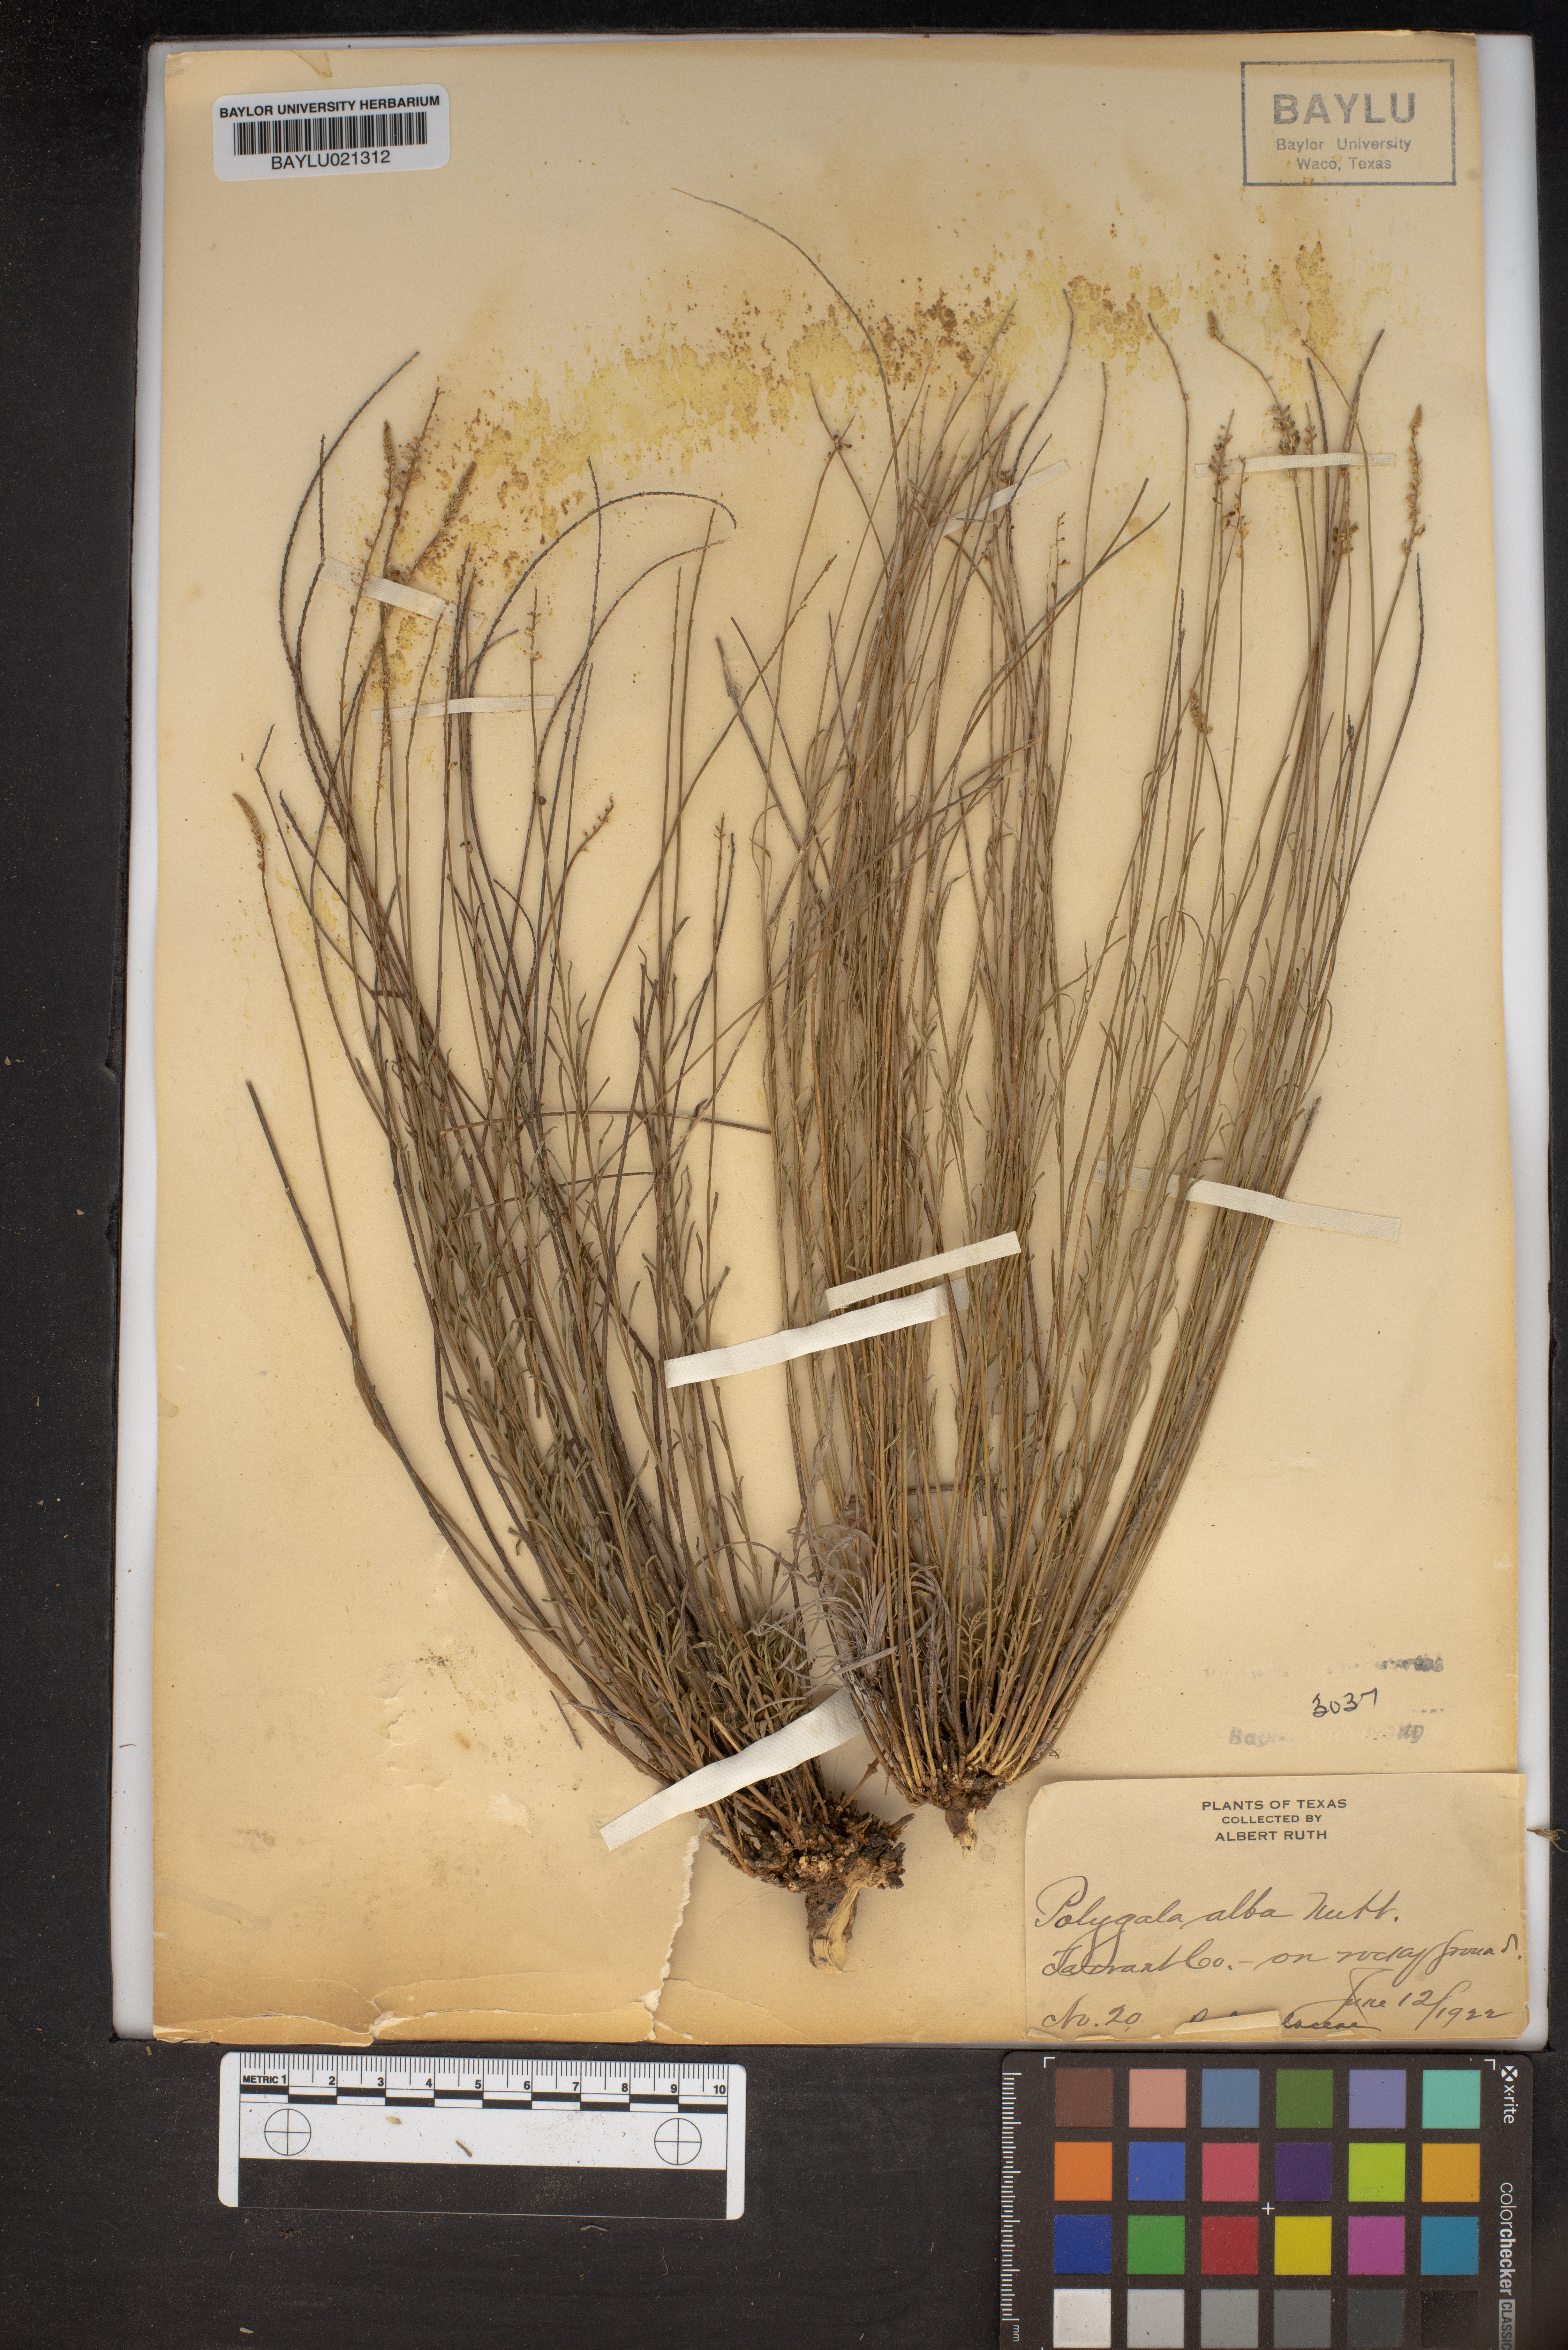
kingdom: Plantae
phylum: Tracheophyta
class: Magnoliopsida
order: Fabales
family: Polygalaceae
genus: Polygala
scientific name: Polygala alba
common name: White milkwort
